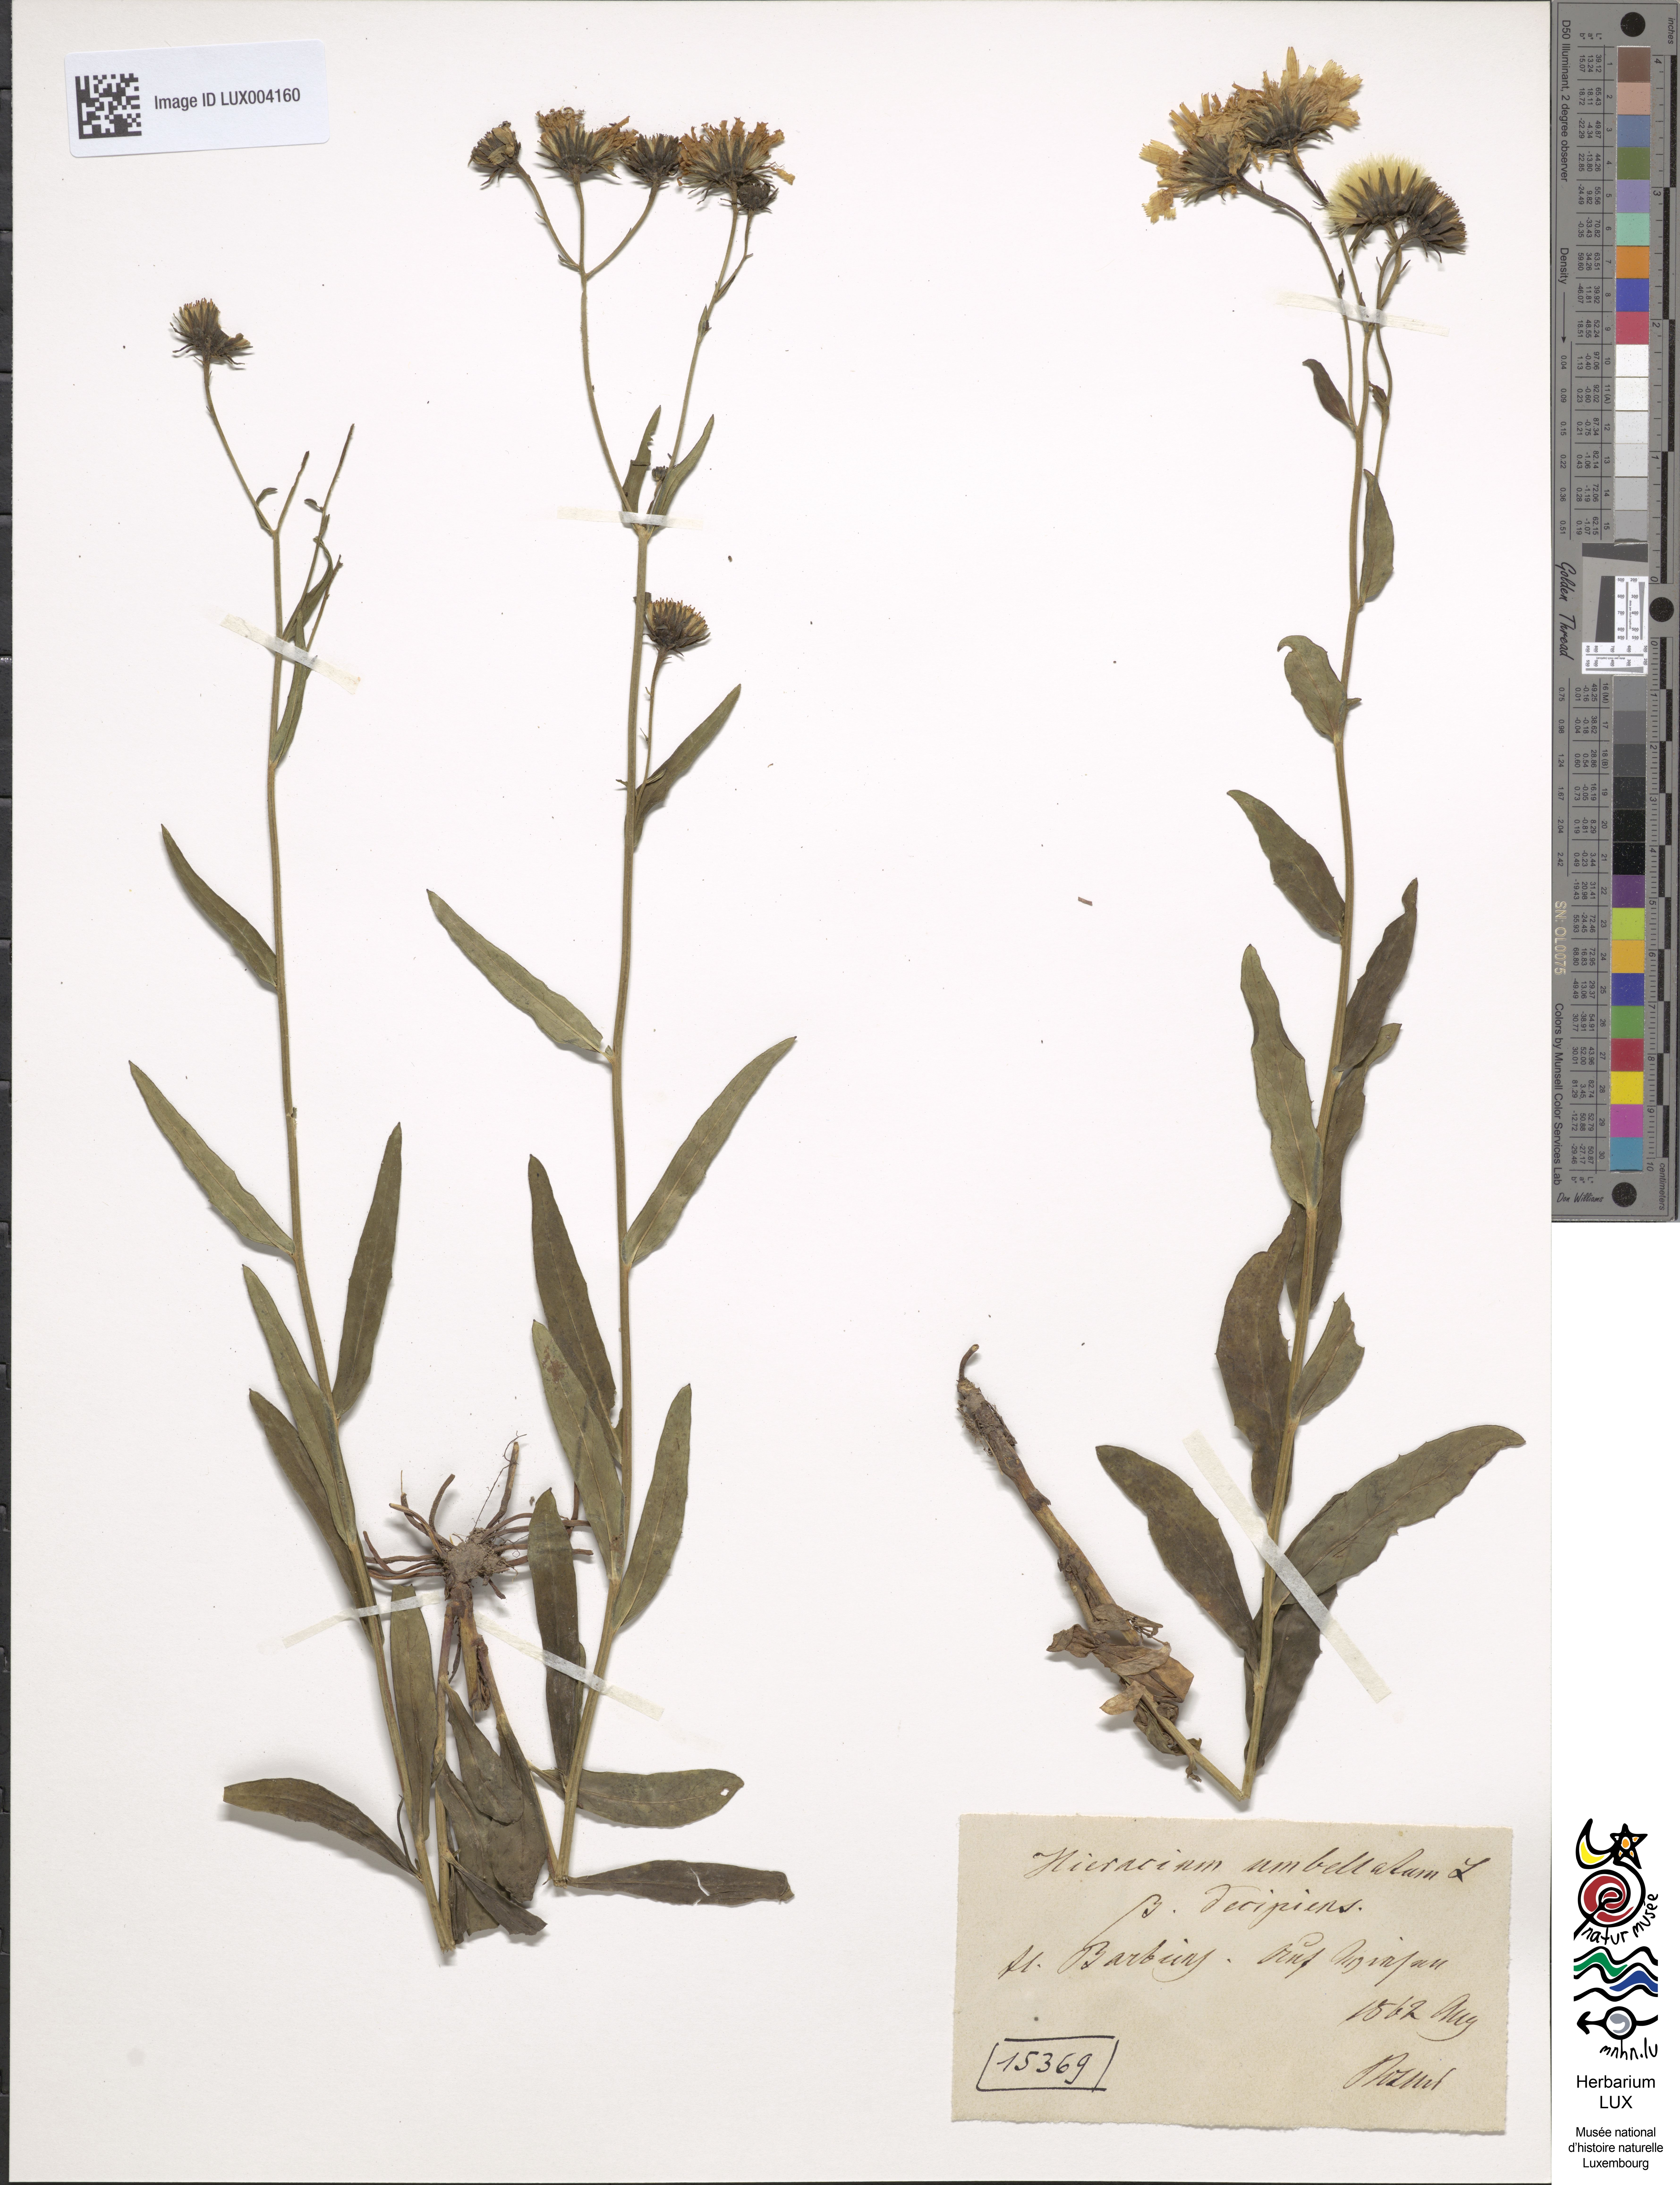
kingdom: Plantae
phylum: Tracheophyta
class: Magnoliopsida
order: Asterales
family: Asteraceae
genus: Hieracium
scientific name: Hieracium umbellatum
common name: Northern hawkweed
